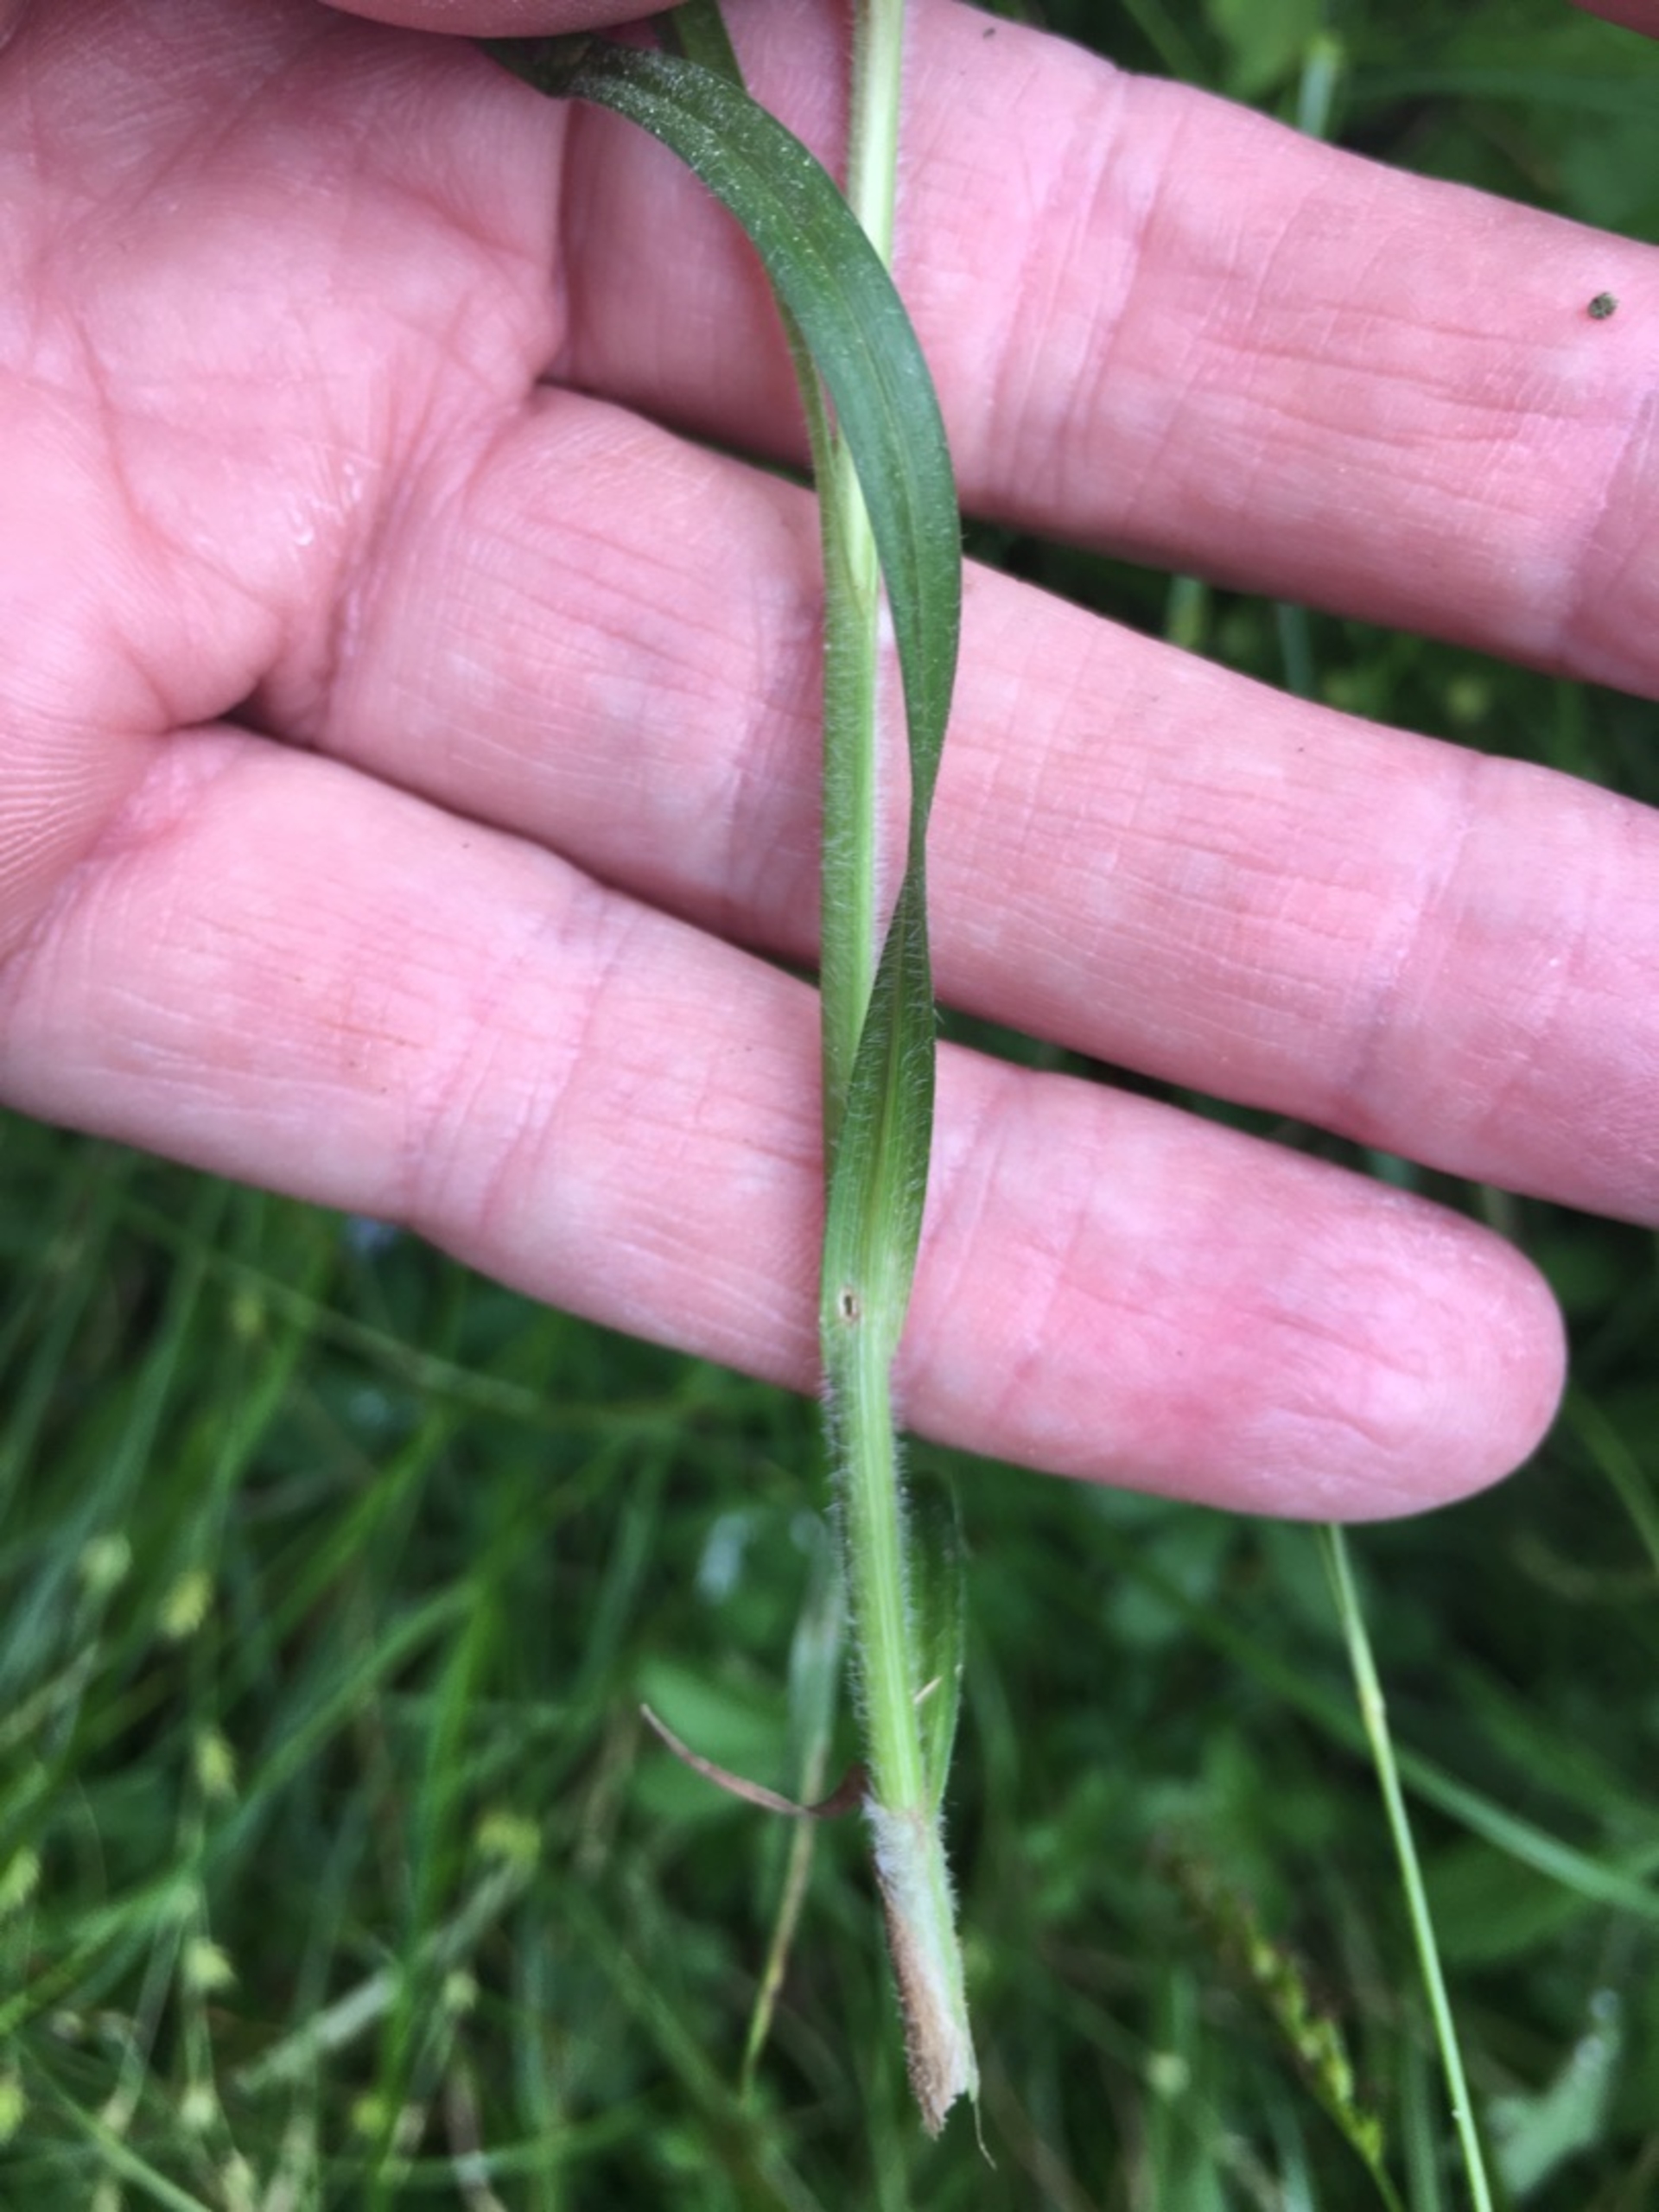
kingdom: Plantae
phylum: Tracheophyta
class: Liliopsida
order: Poales
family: Cyperaceae
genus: Carex
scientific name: Carex hirta
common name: Håret star
